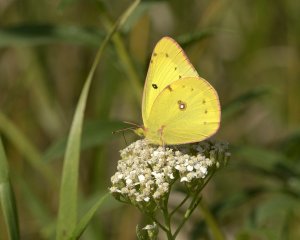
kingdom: Animalia
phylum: Arthropoda
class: Insecta
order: Lepidoptera
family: Pieridae
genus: Colias
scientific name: Colias eurytheme
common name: Orange Sulphur
